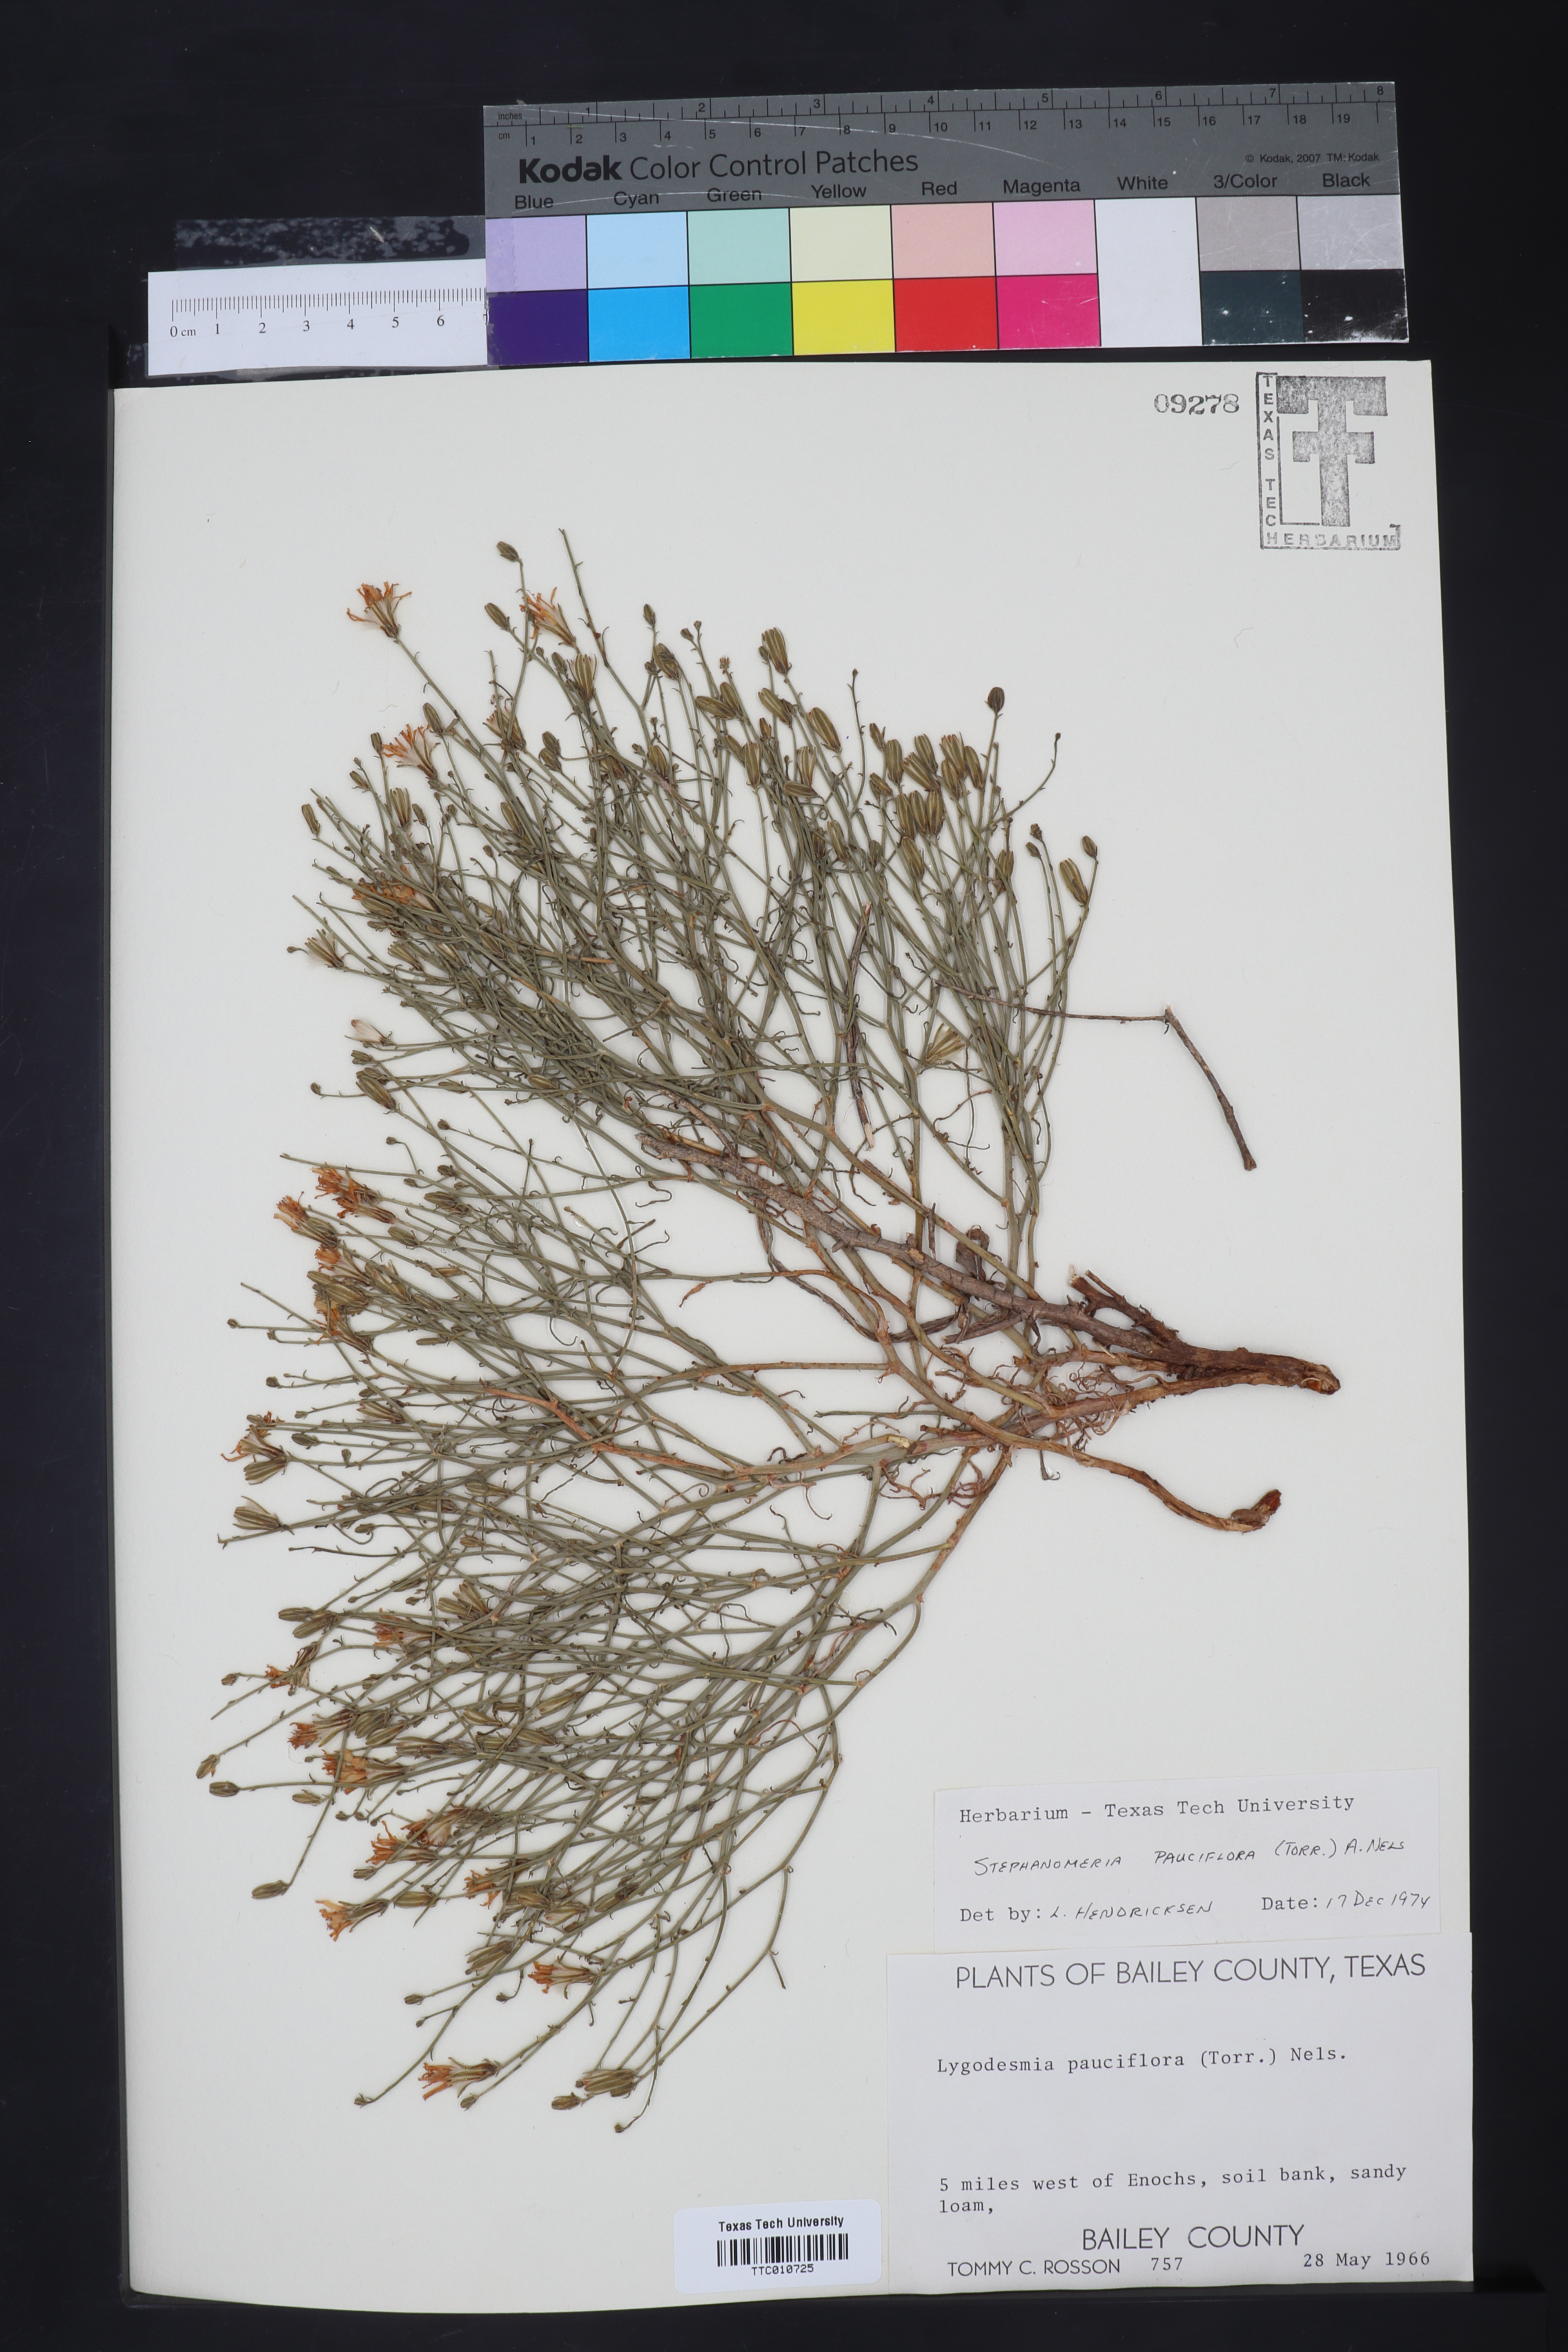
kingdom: Plantae
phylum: Tracheophyta
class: Magnoliopsida
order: Asterales
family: Asteraceae
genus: Stephanomeria
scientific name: Stephanomeria pauciflora
